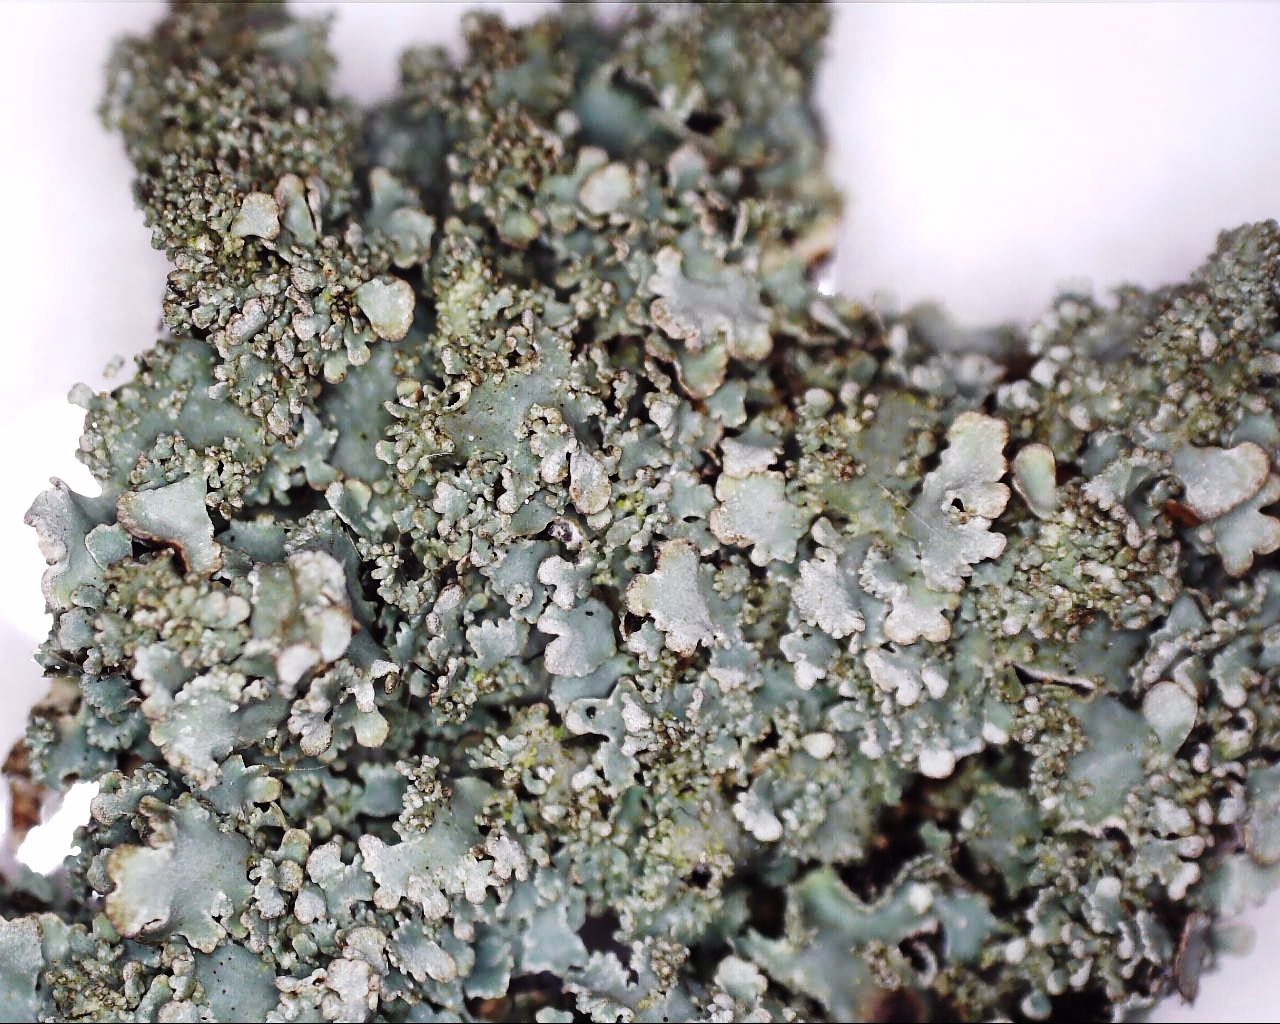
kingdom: Fungi
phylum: Ascomycota
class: Lecanoromycetes
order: Lecanorales
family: Parmeliaceae
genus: Parmelia
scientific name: Parmelia ernstiae
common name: rimstift-skållav
